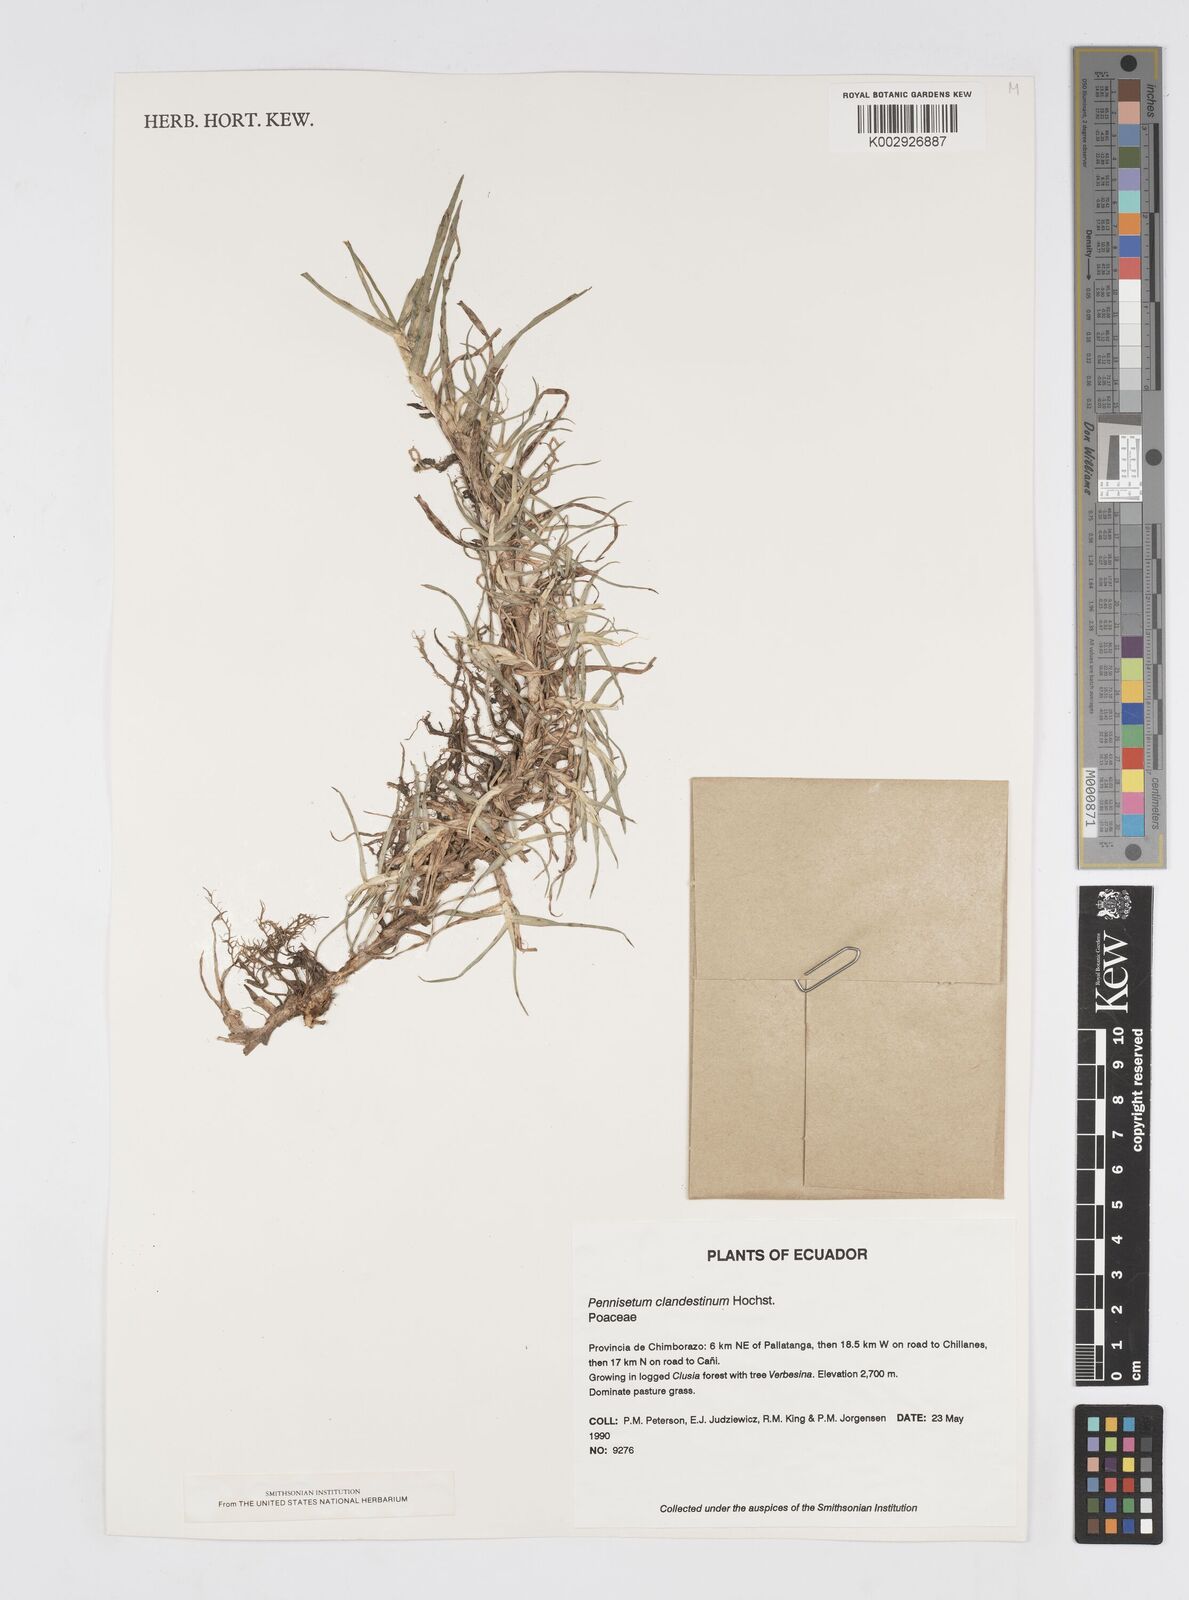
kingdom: Plantae
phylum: Tracheophyta
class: Liliopsida
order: Poales
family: Poaceae
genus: Cenchrus
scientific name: Cenchrus clandestinus
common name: Kikuyugrass
